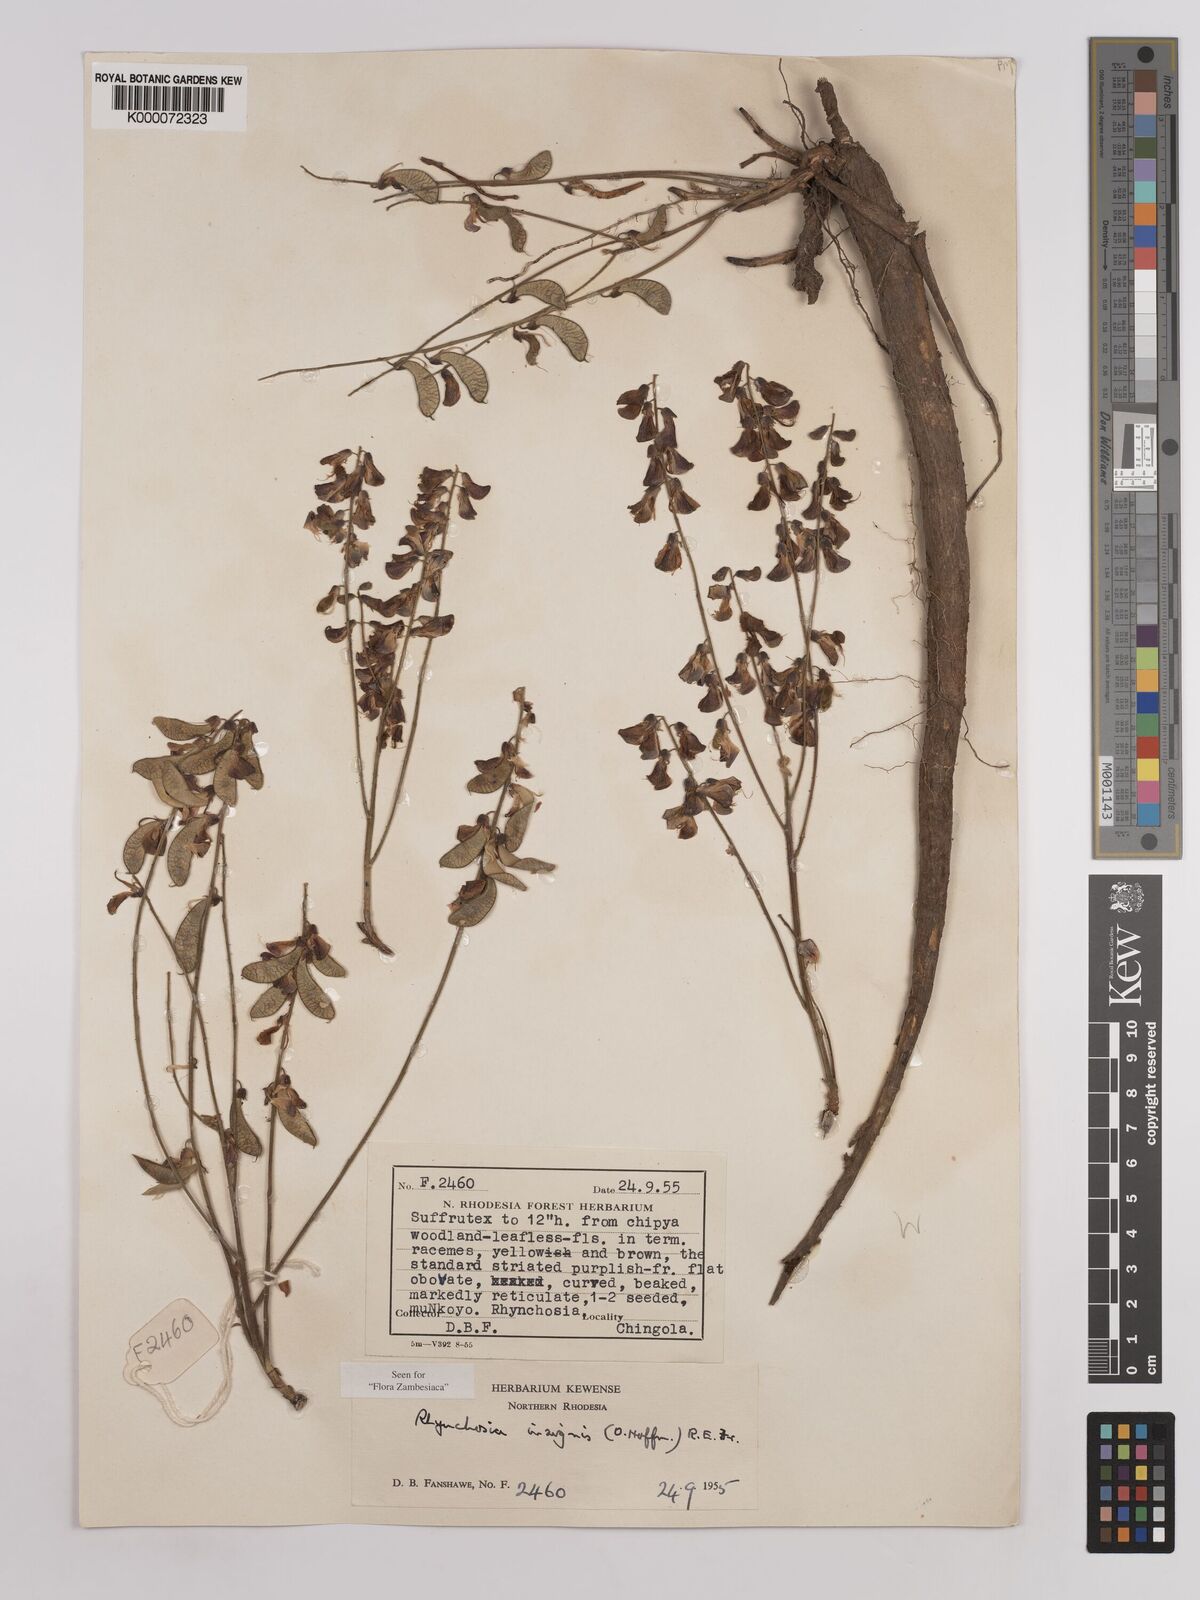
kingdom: Plantae
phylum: Tracheophyta
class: Magnoliopsida
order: Fabales
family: Fabaceae
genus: Rhynchosia
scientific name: Rhynchosia insignis
